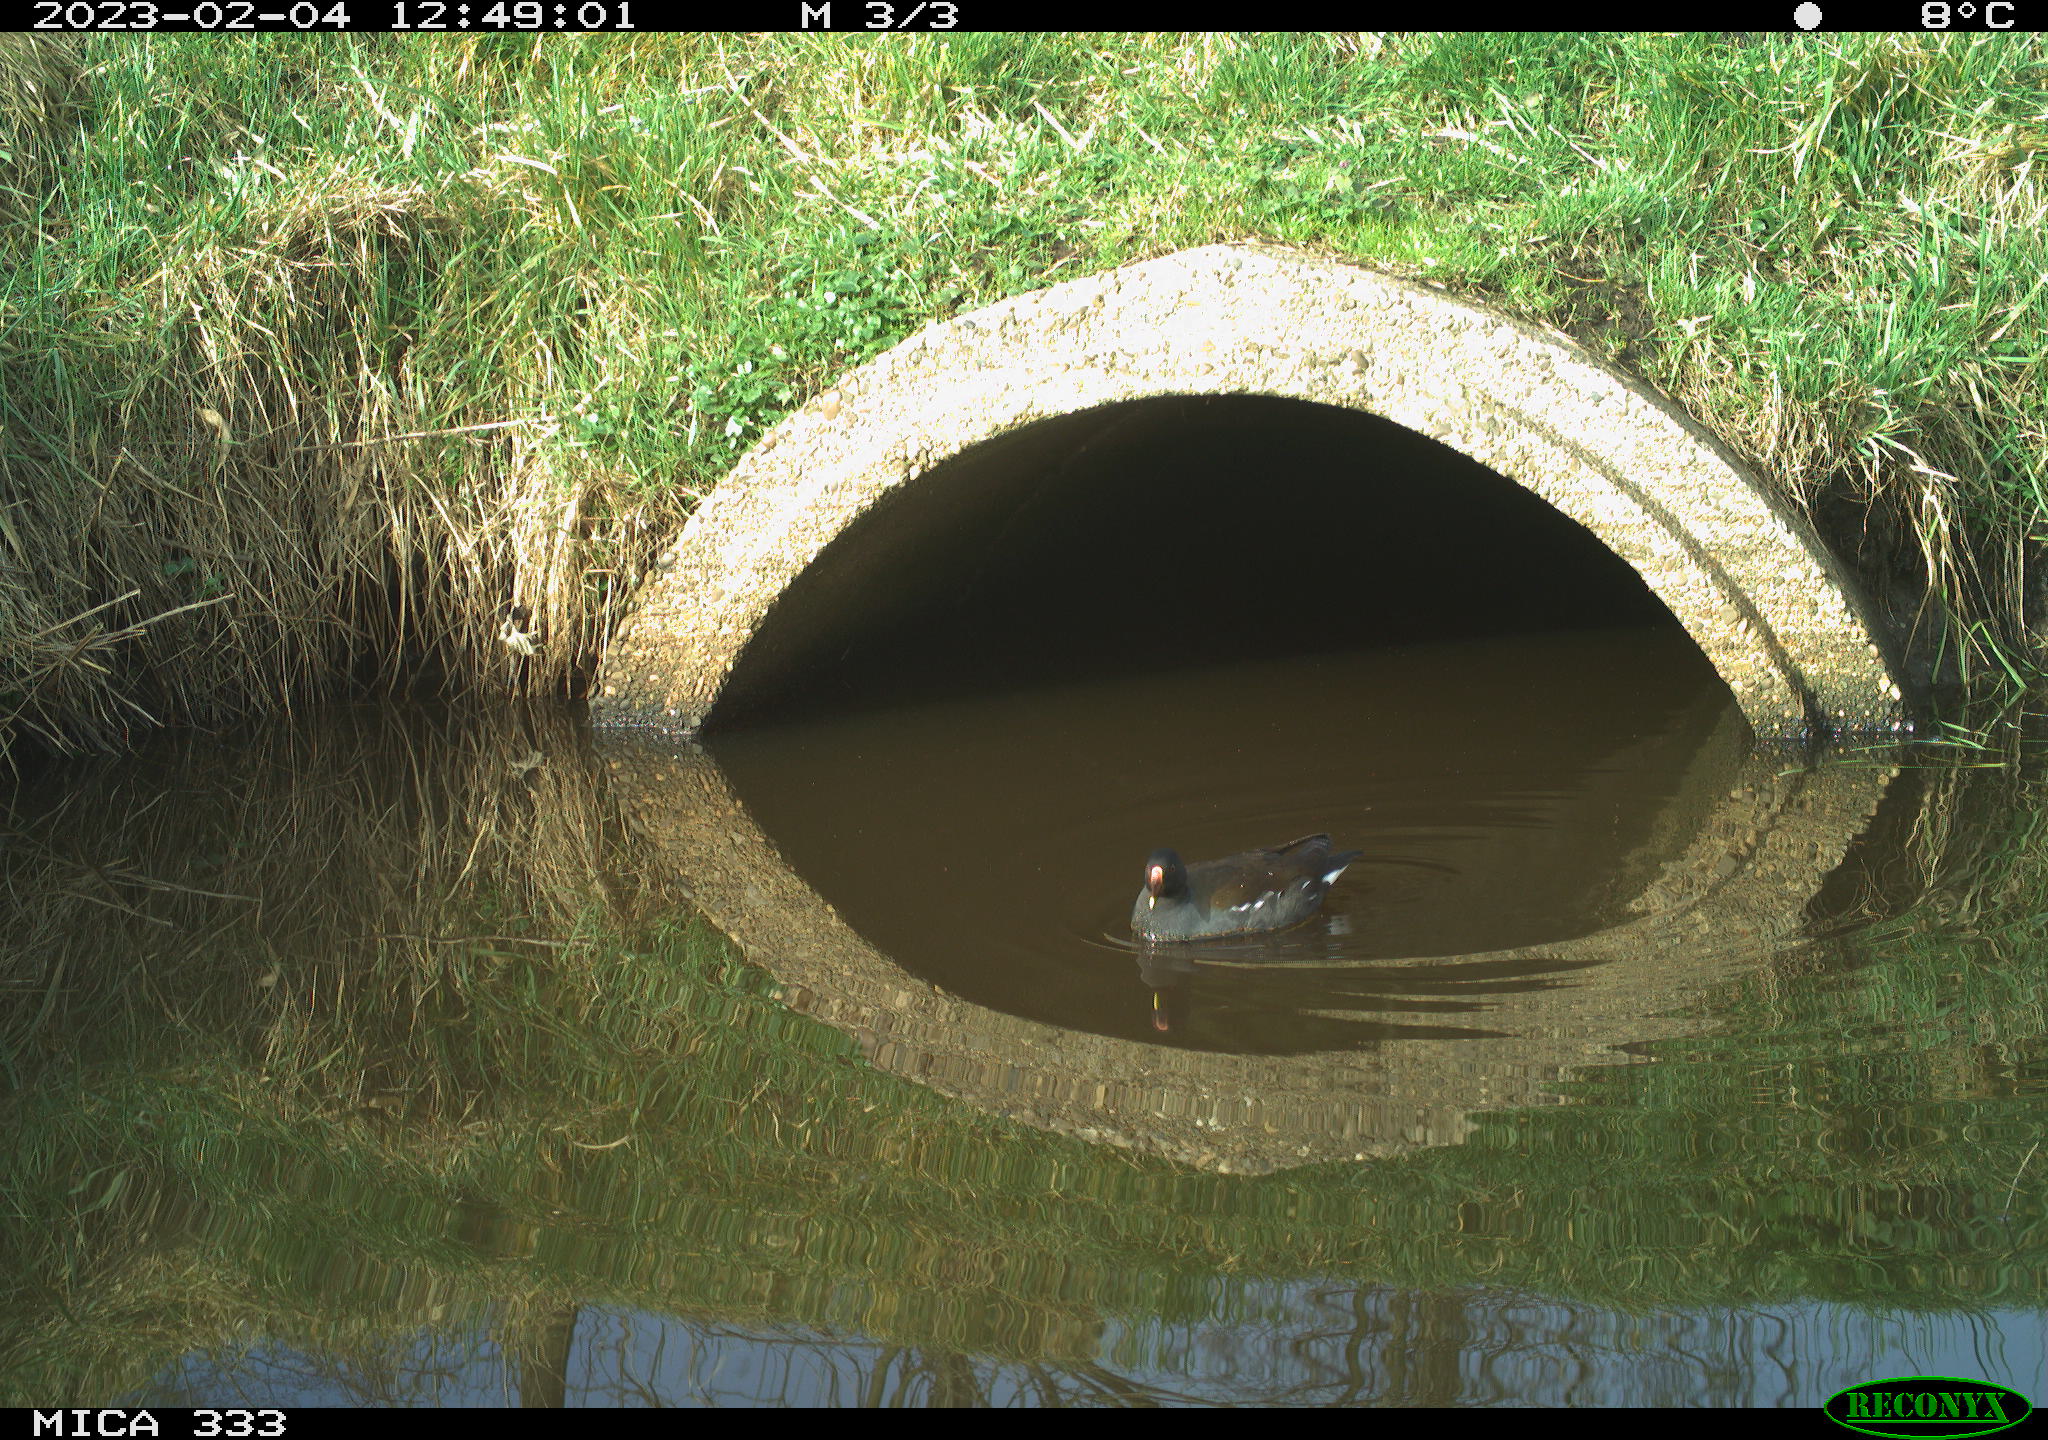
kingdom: Animalia
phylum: Chordata
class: Aves
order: Gruiformes
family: Rallidae
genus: Gallinula
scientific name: Gallinula chloropus
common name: Common moorhen
